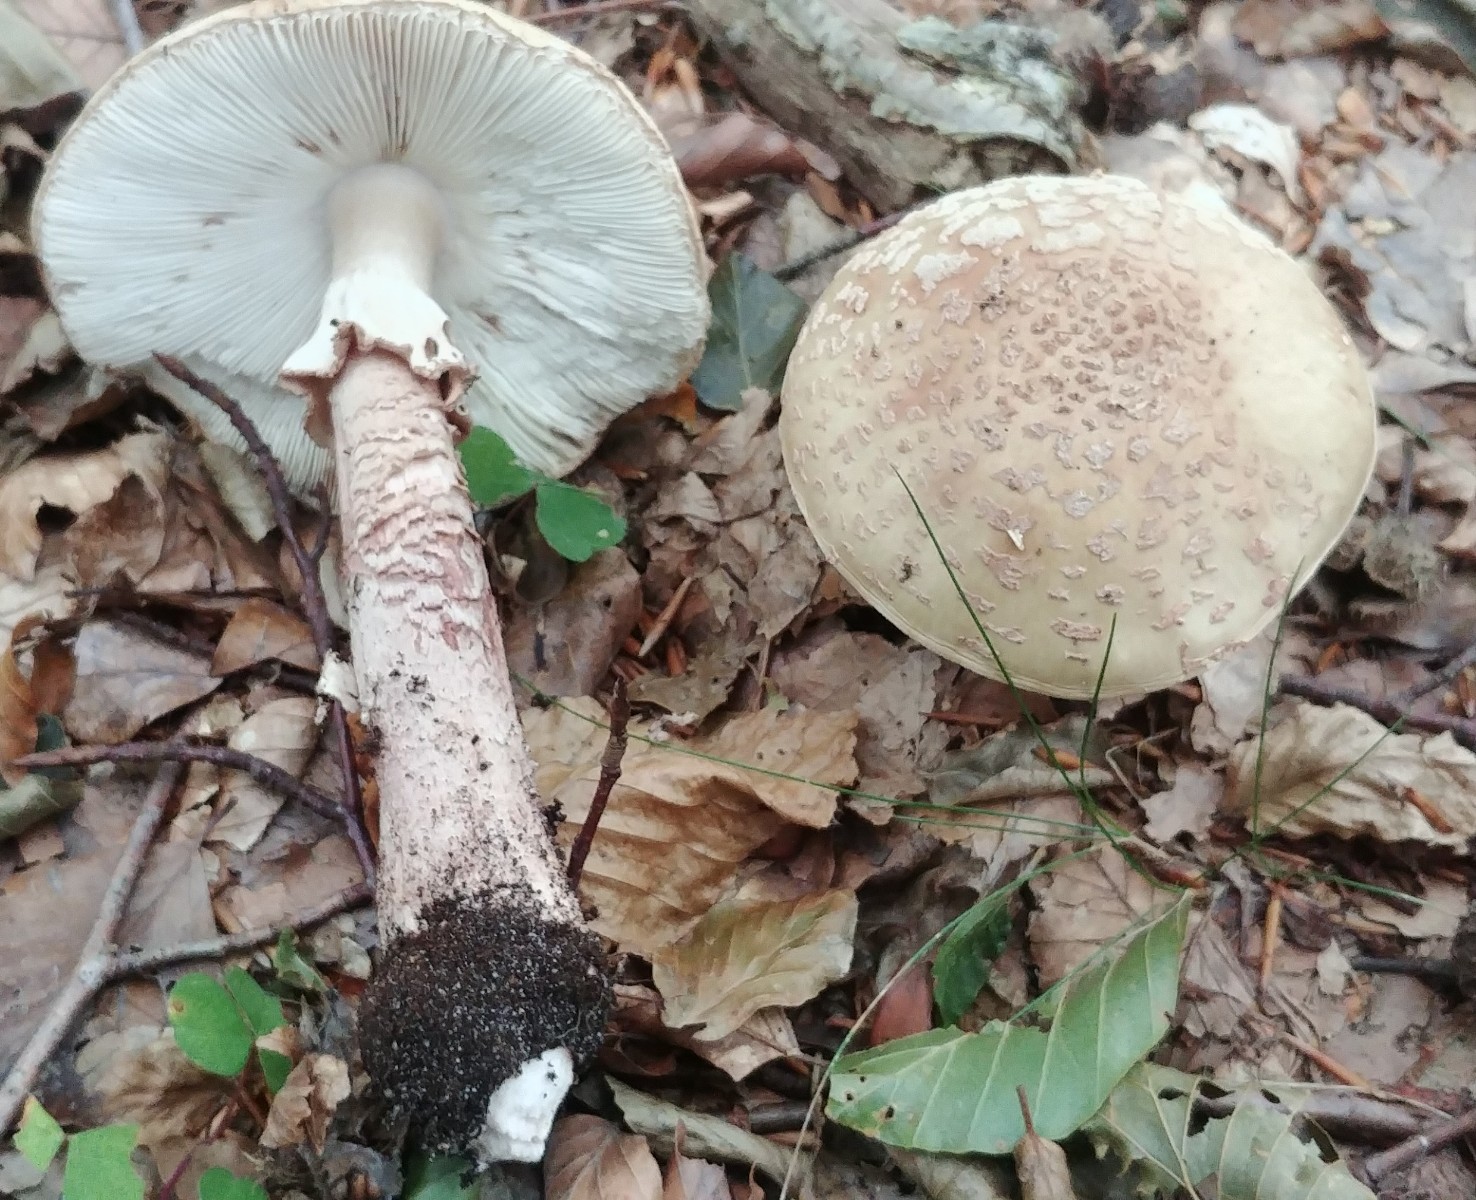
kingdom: Fungi
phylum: Basidiomycota
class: Agaricomycetes
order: Agaricales
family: Amanitaceae
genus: Amanita
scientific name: Amanita rubescens
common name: rødmende fluesvamp
